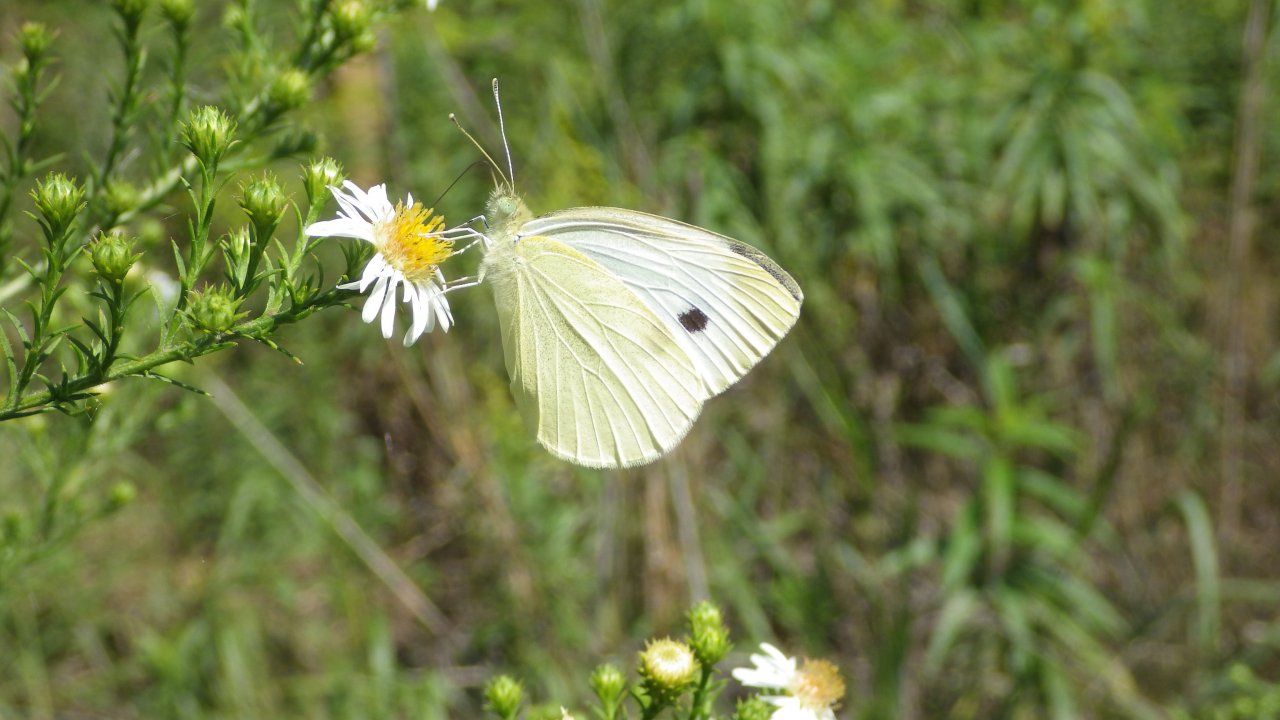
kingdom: Animalia
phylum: Arthropoda
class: Insecta
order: Lepidoptera
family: Pieridae
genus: Pieris
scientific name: Pieris rapae
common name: Cabbage White
